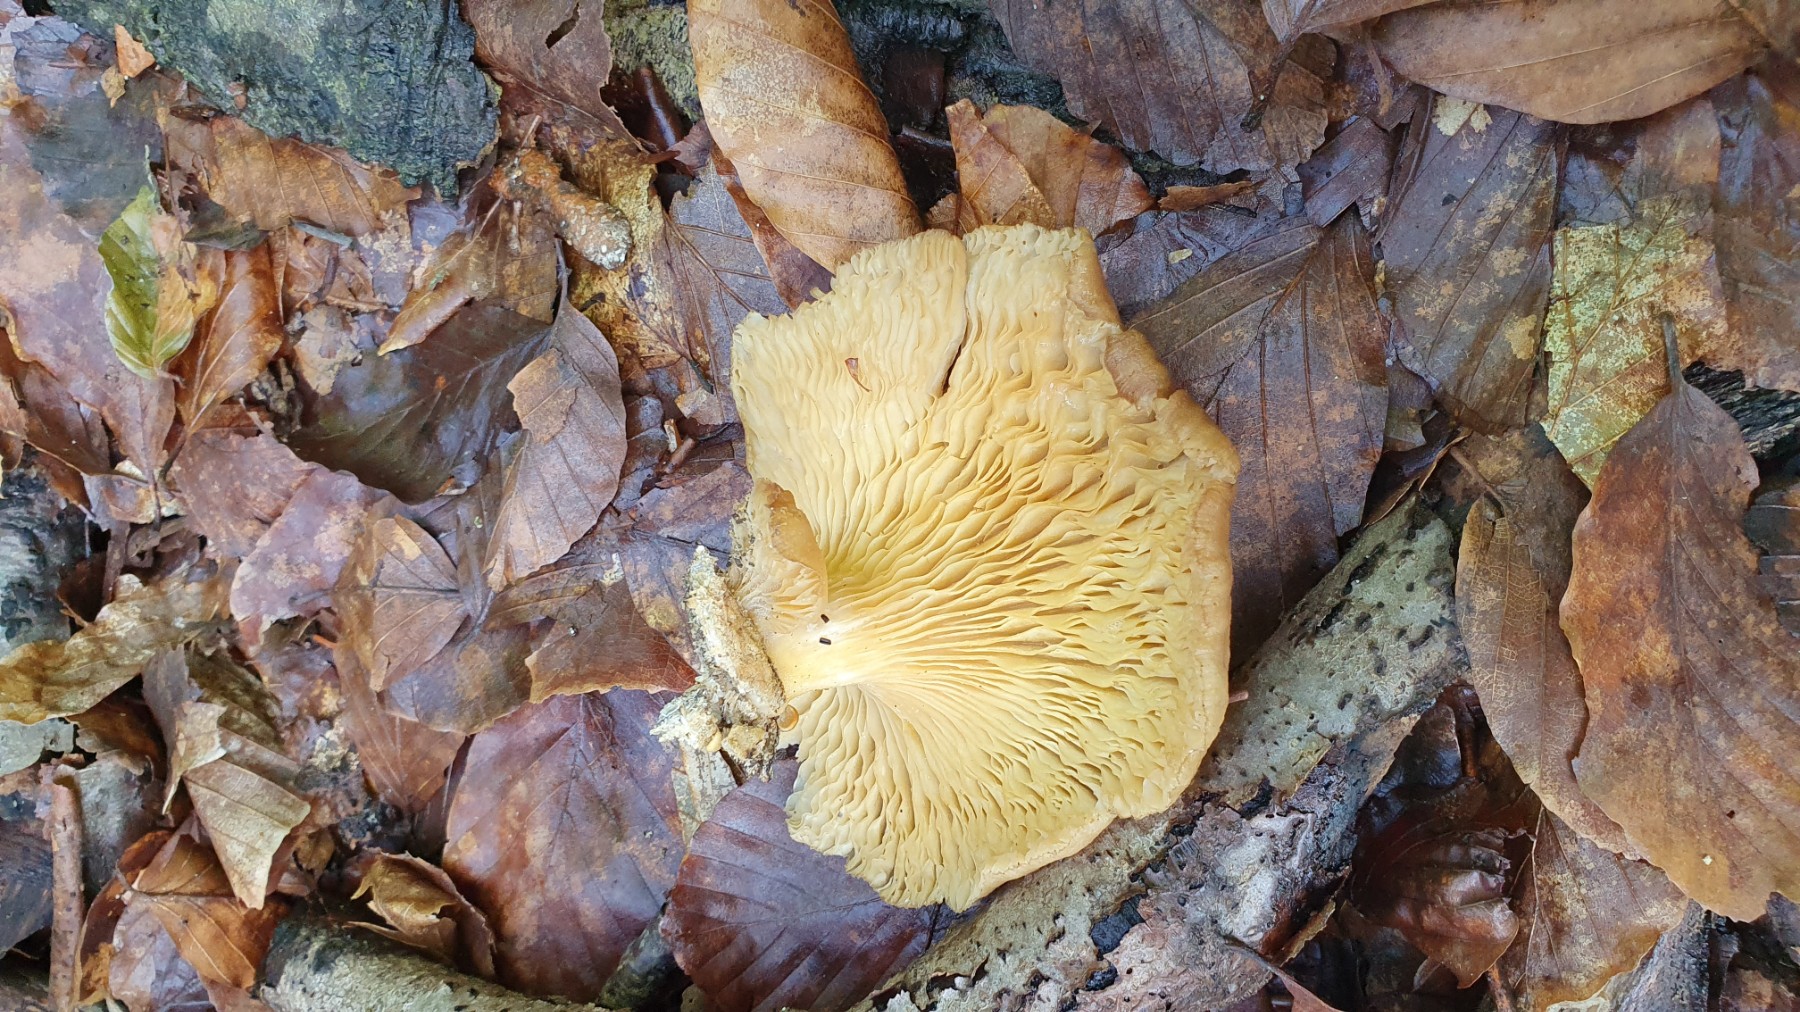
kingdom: Fungi
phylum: Basidiomycota
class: Agaricomycetes
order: Agaricales
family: Pleurotaceae
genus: Pleurotus
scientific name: Pleurotus pulmonarius
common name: sommer-østershat
